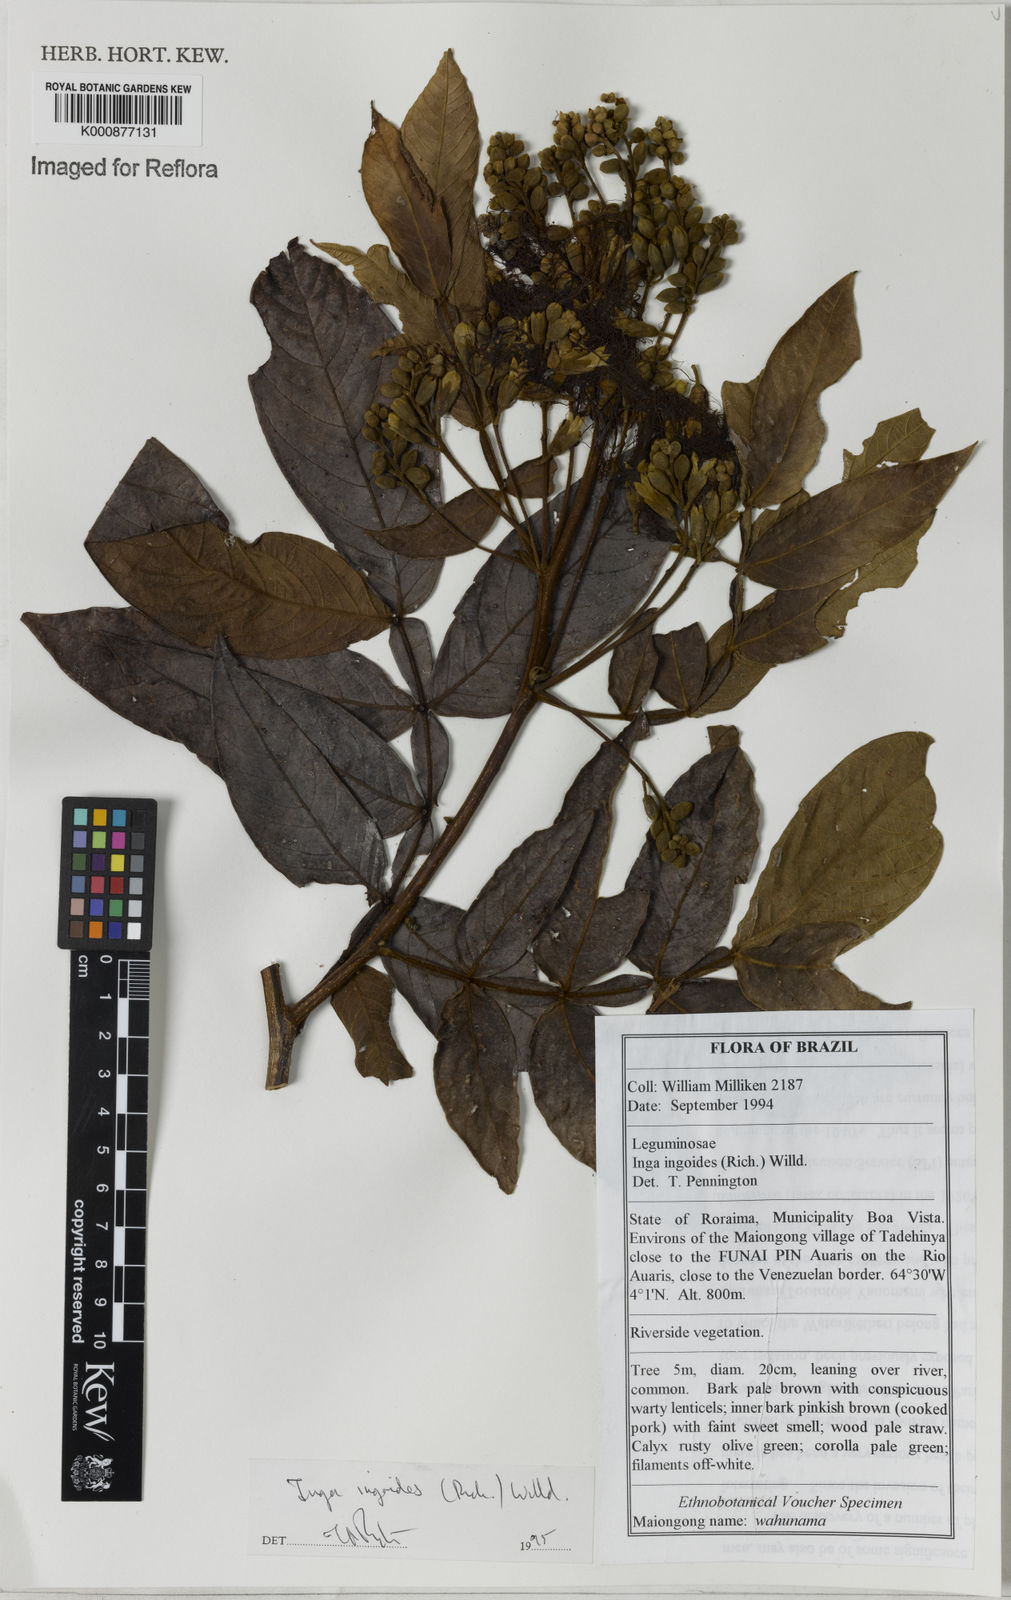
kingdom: Plantae
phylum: Tracheophyta
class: Magnoliopsida
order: Fabales
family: Fabaceae
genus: Inga
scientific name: Inga ingoides
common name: Spanish ash
